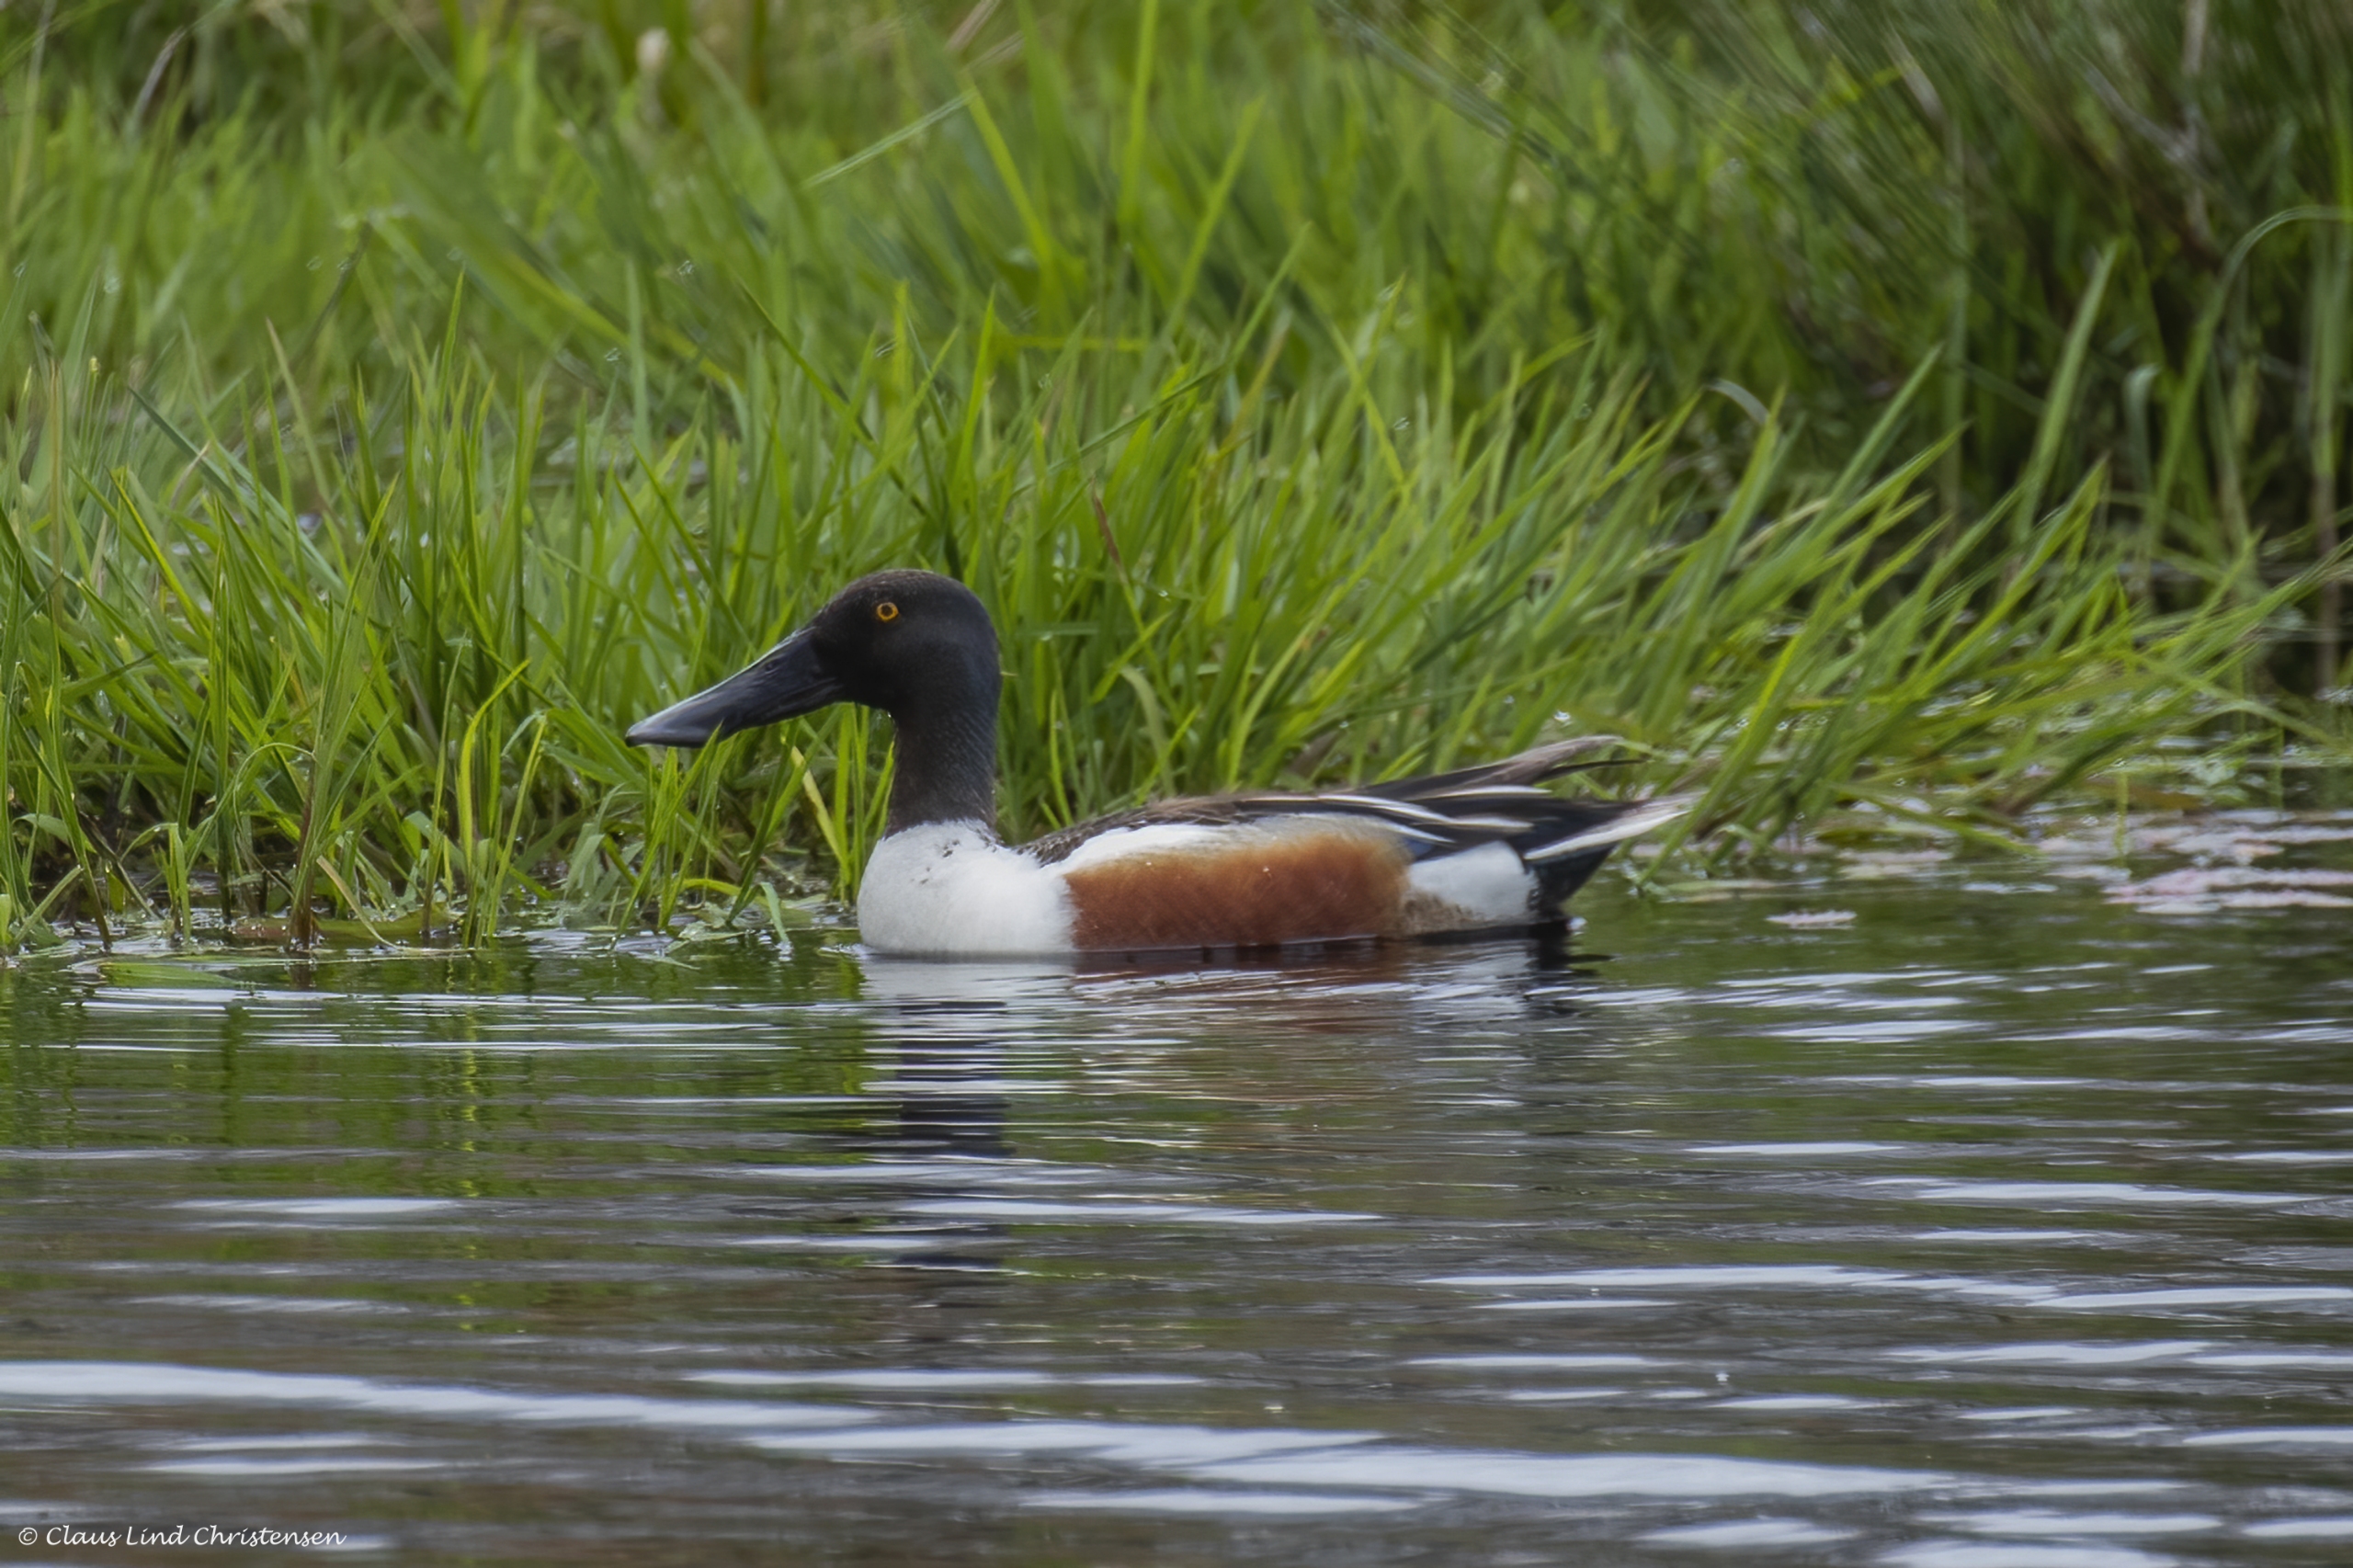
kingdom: Animalia
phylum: Chordata
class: Aves
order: Anseriformes
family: Anatidae
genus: Spatula
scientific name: Spatula clypeata
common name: Skeand
